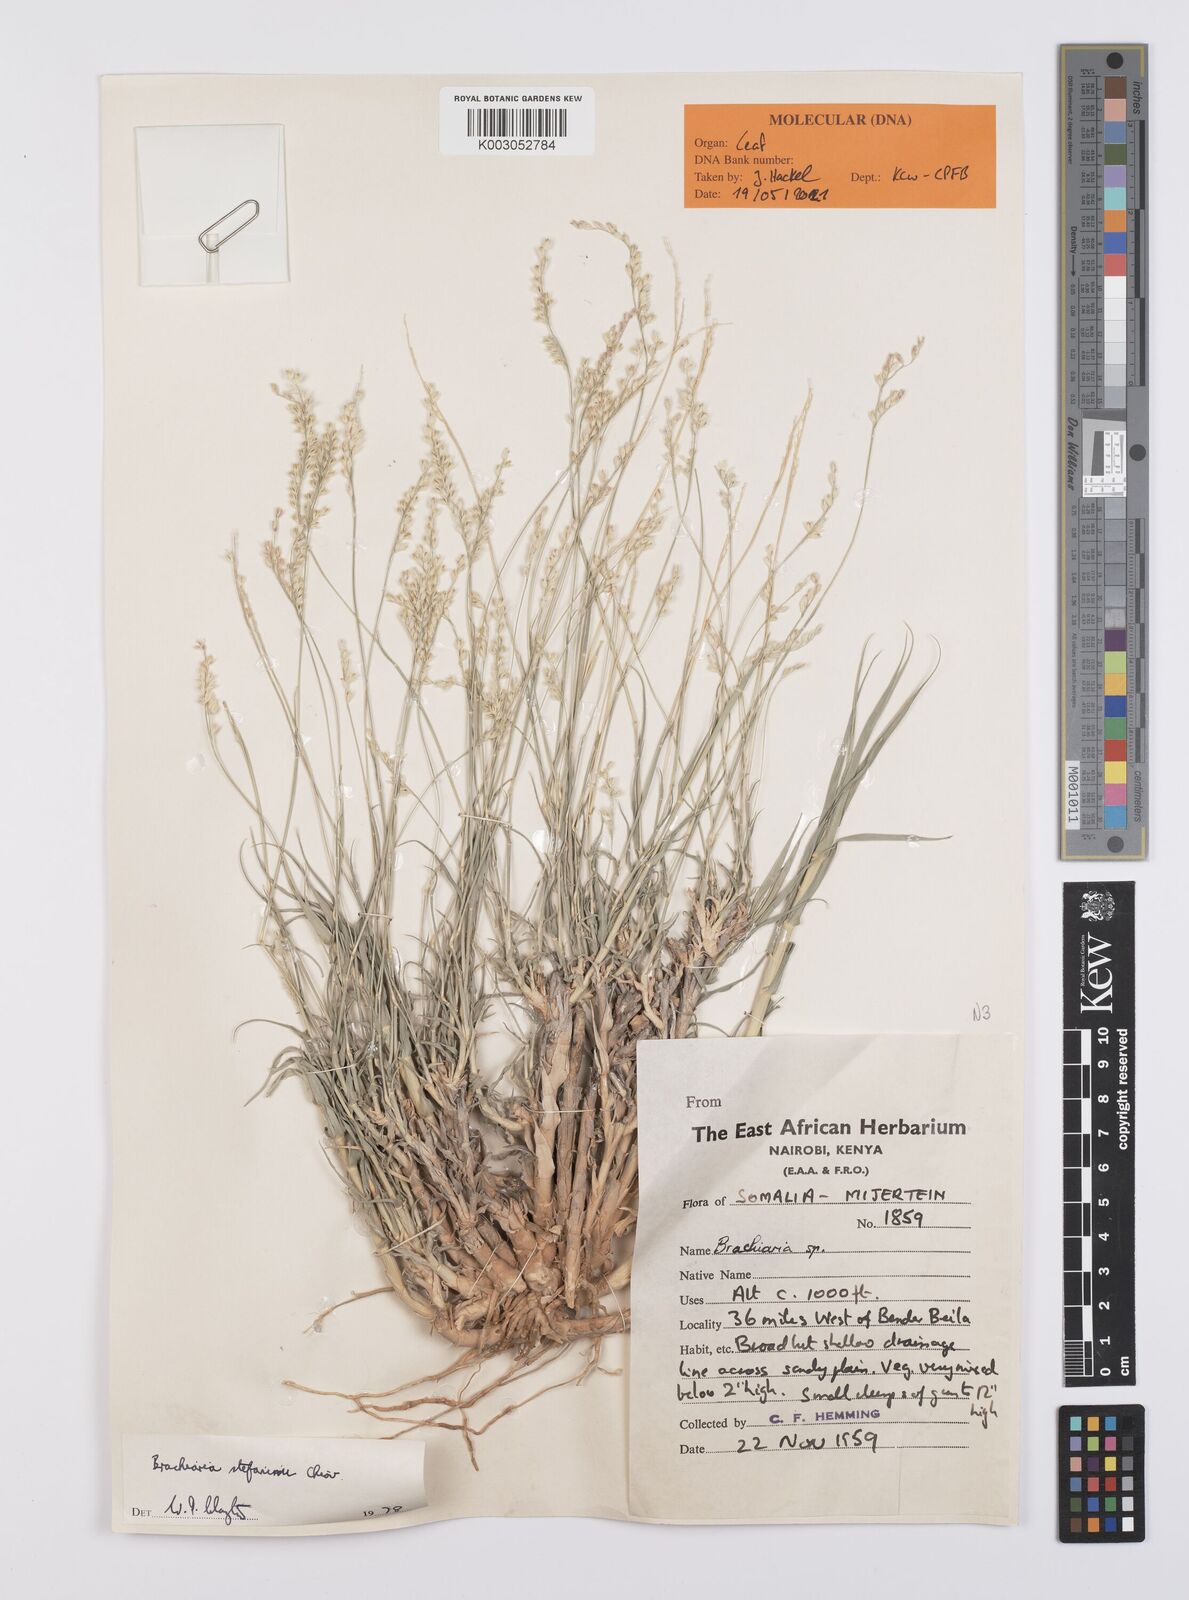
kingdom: Plantae
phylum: Tracheophyta
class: Liliopsida
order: Poales
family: Poaceae
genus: Urochloa
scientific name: Urochloa Brachiaria stefaninii
